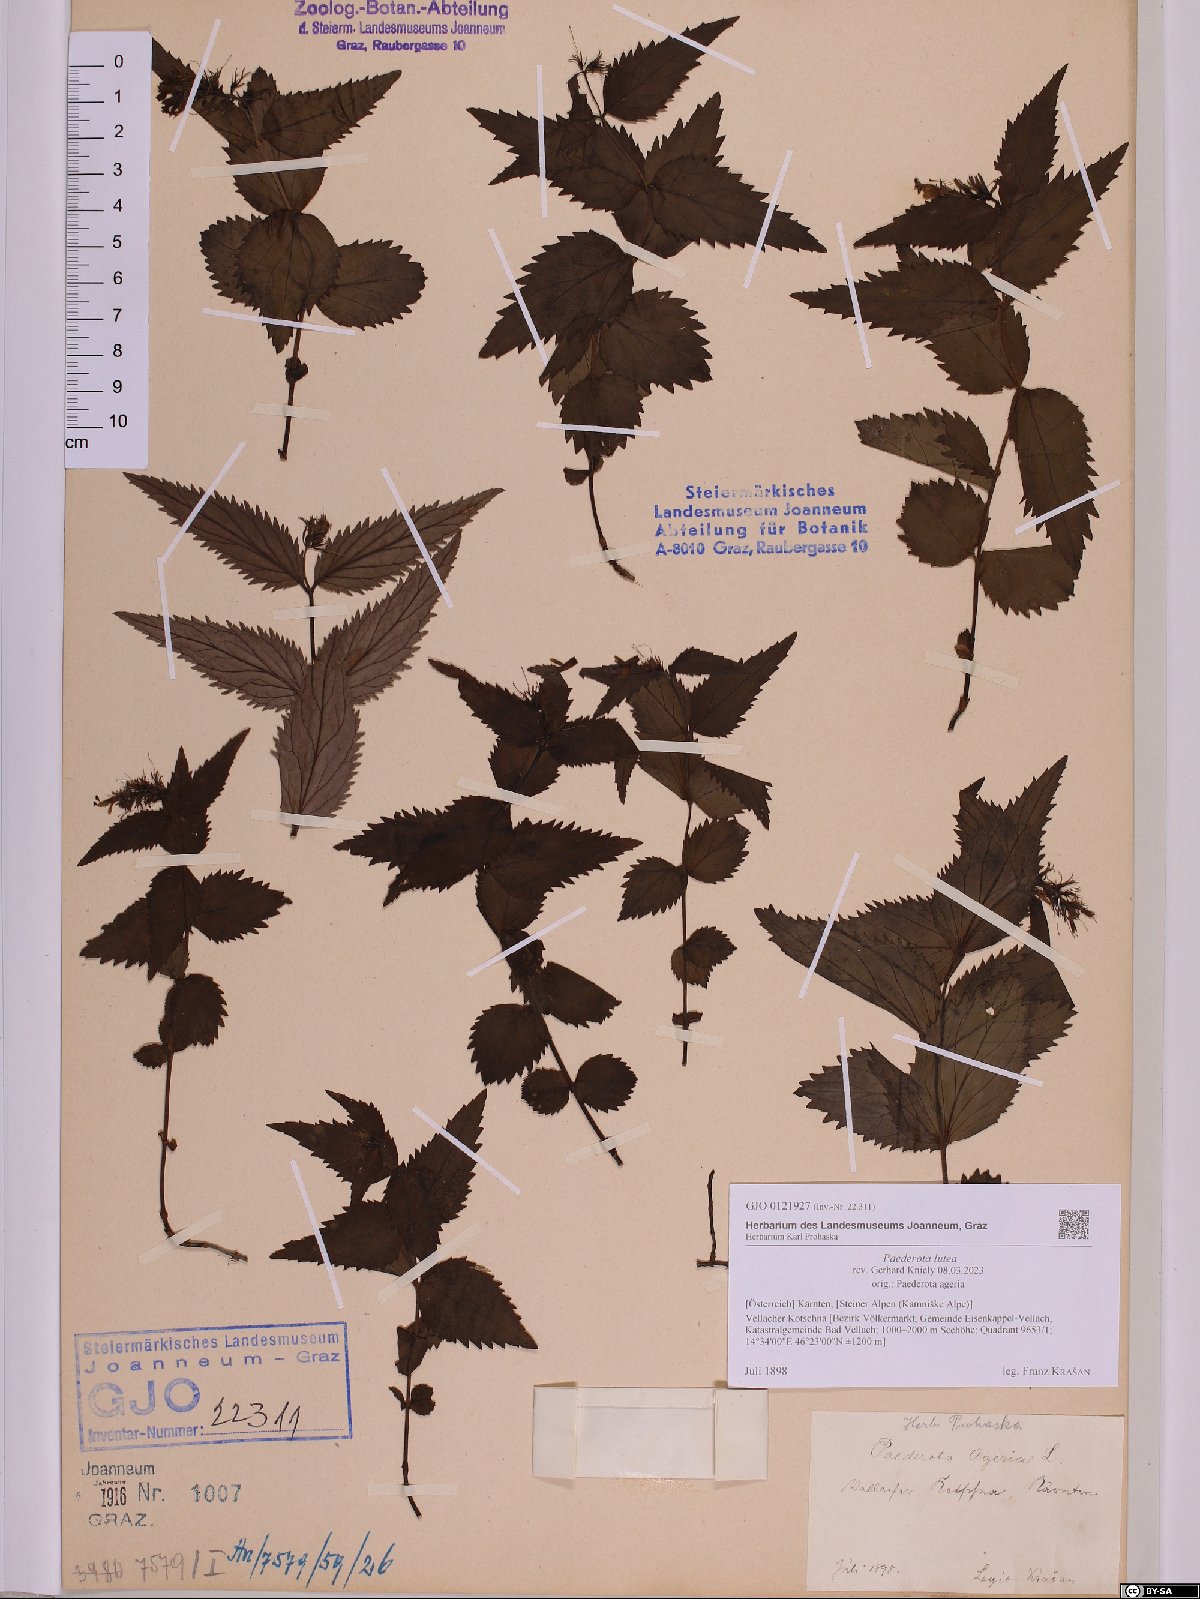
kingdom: Plantae
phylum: Tracheophyta
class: Magnoliopsida
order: Lamiales
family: Plantaginaceae
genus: Paederota
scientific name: Paederota lutea
